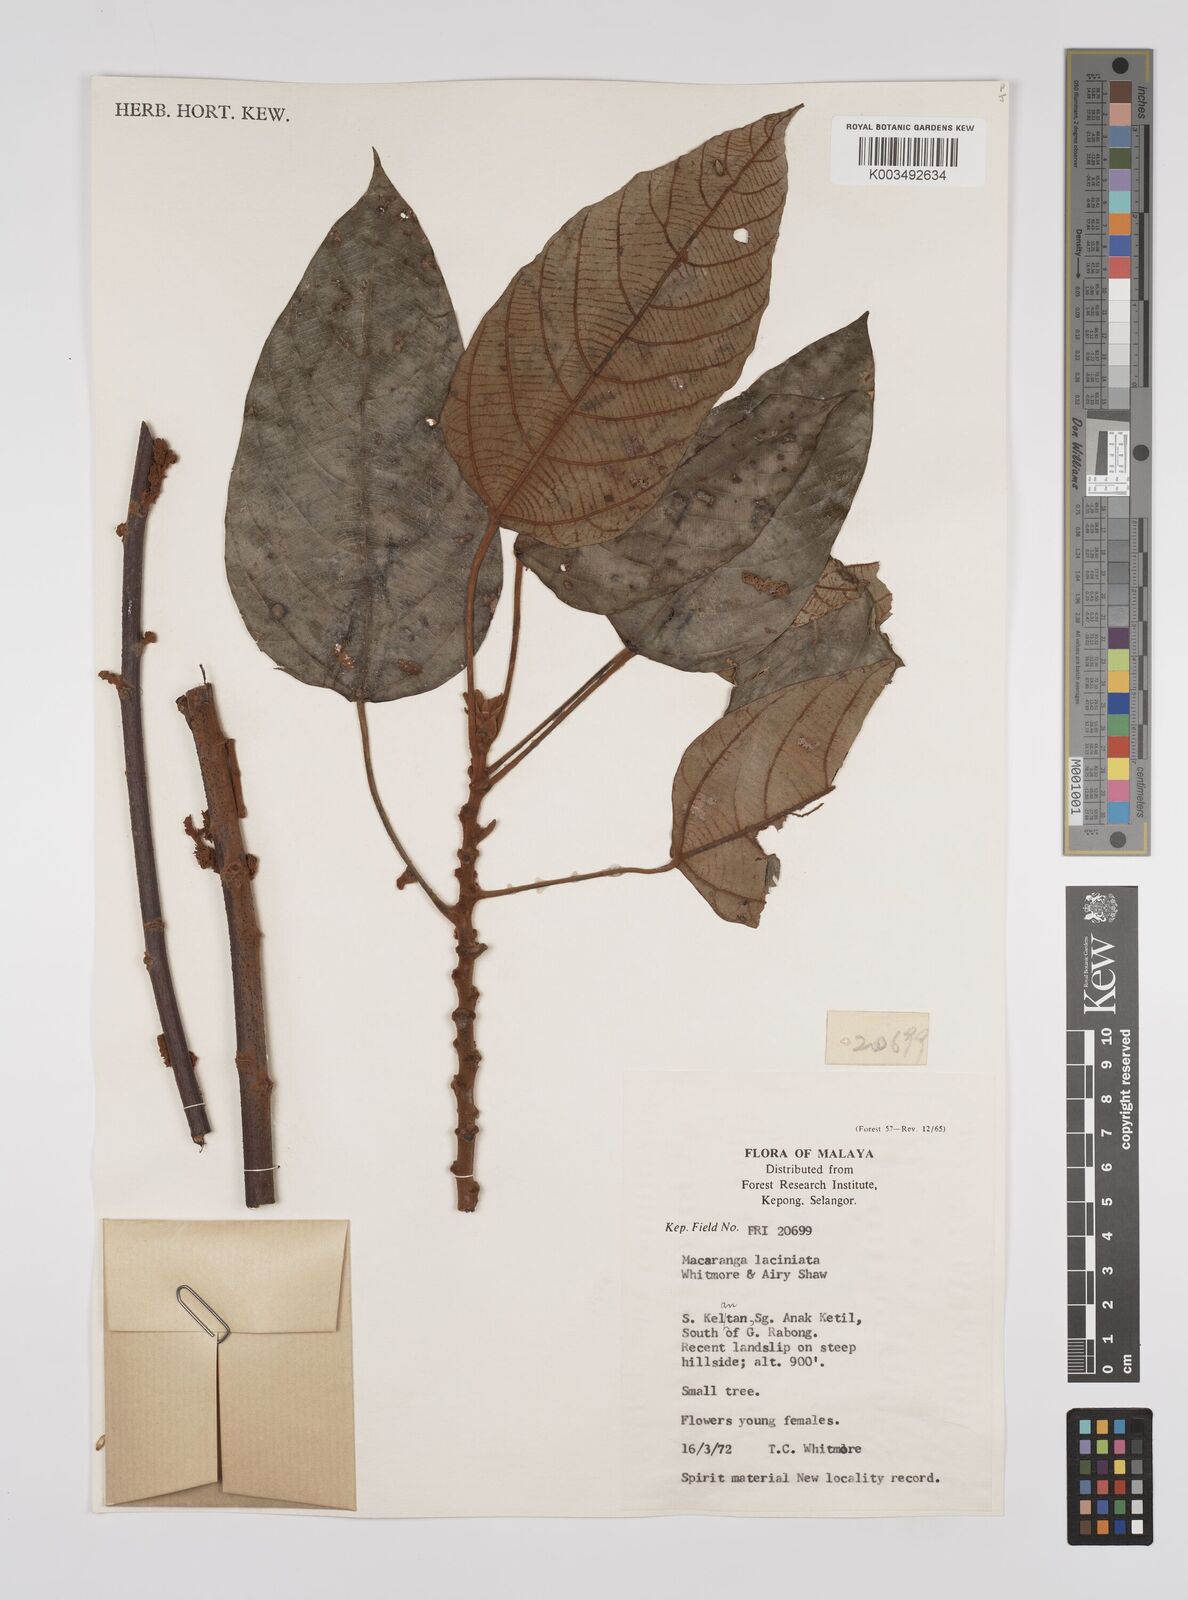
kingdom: Plantae
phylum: Tracheophyta
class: Magnoliopsida
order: Malpighiales
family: Euphorbiaceae
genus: Macaranga
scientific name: Macaranga laciniata
